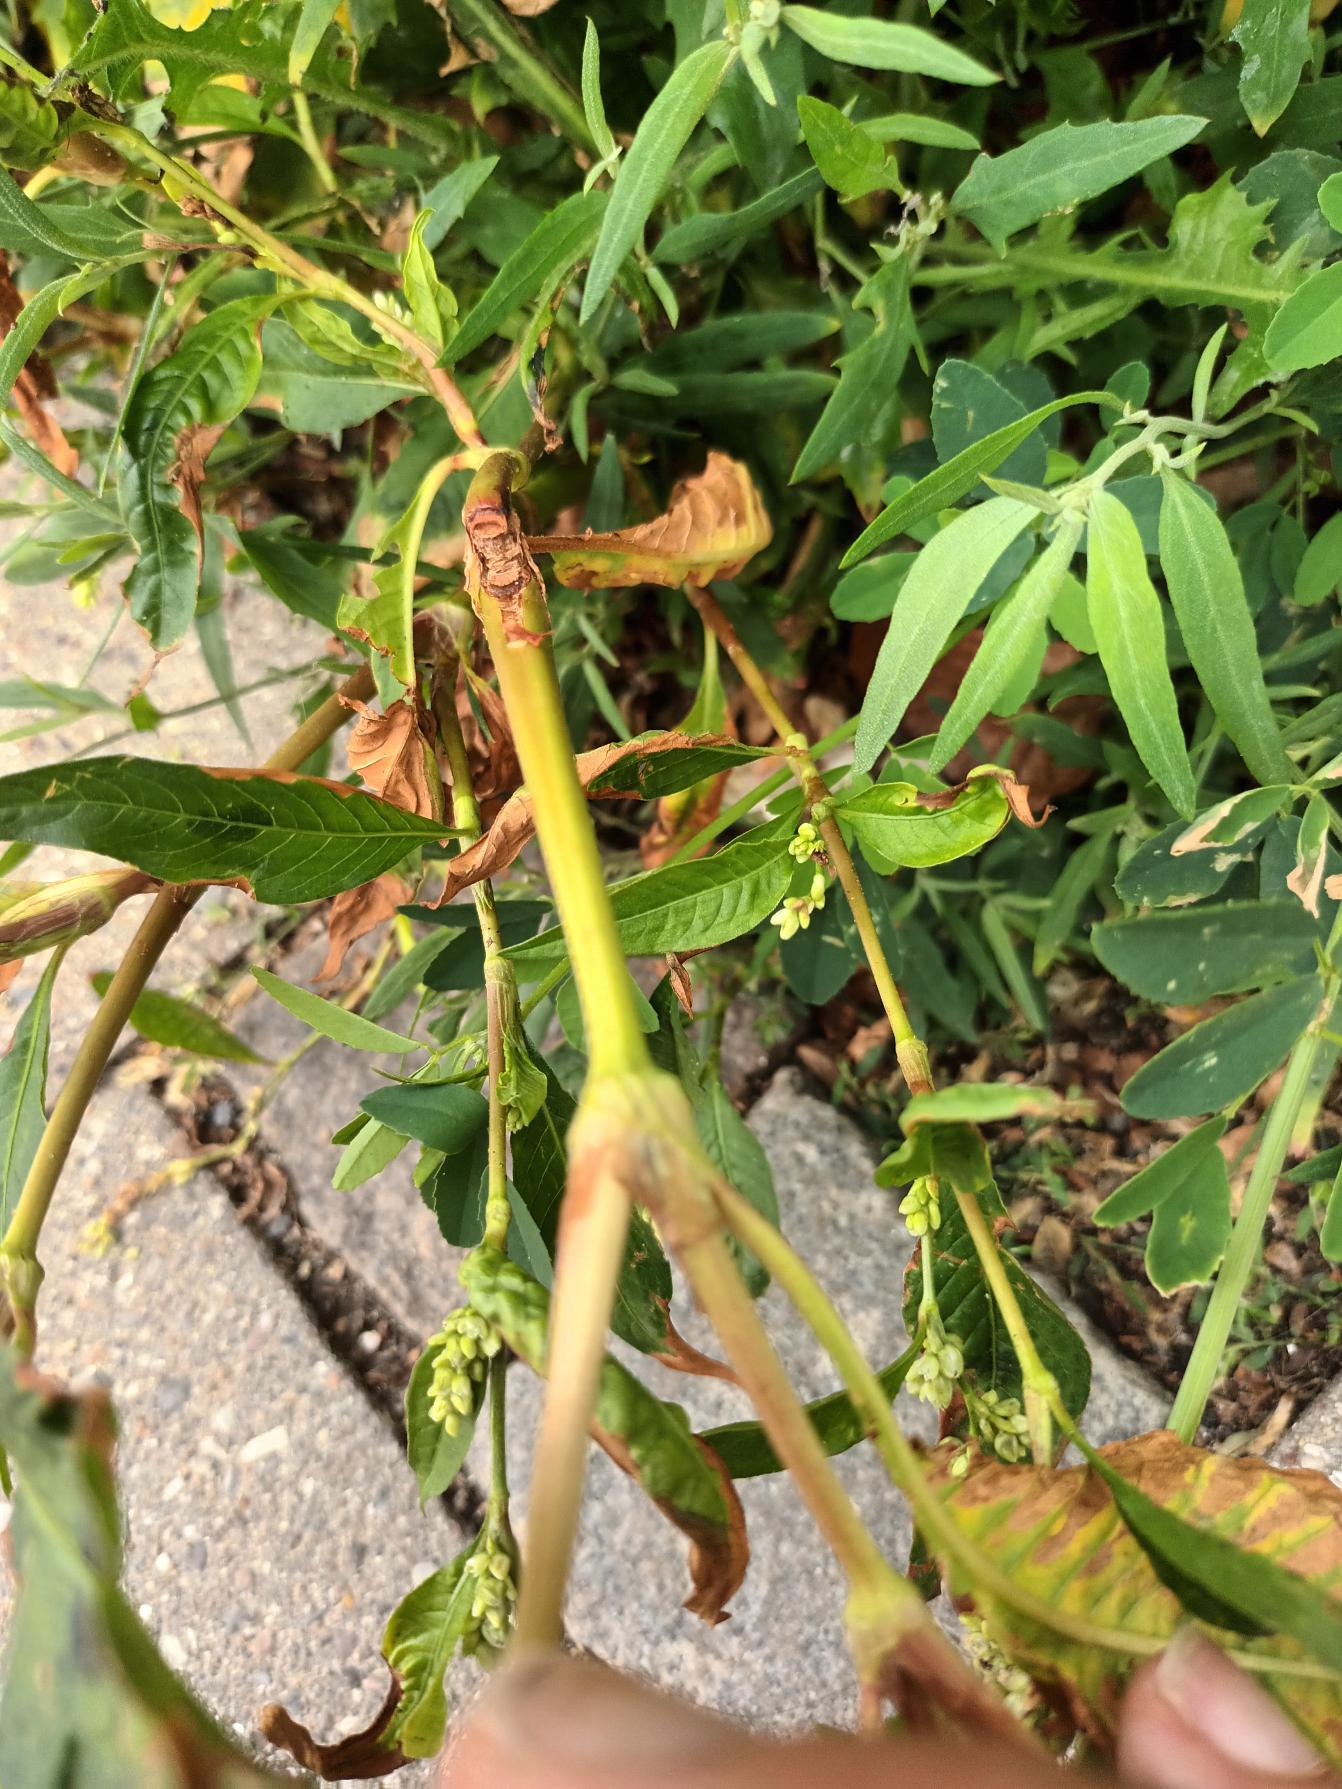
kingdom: Plantae
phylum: Tracheophyta
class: Magnoliopsida
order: Caryophyllales
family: Polygonaceae
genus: Persicaria
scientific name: Persicaria lapathifolia
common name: Bleg pileurt
